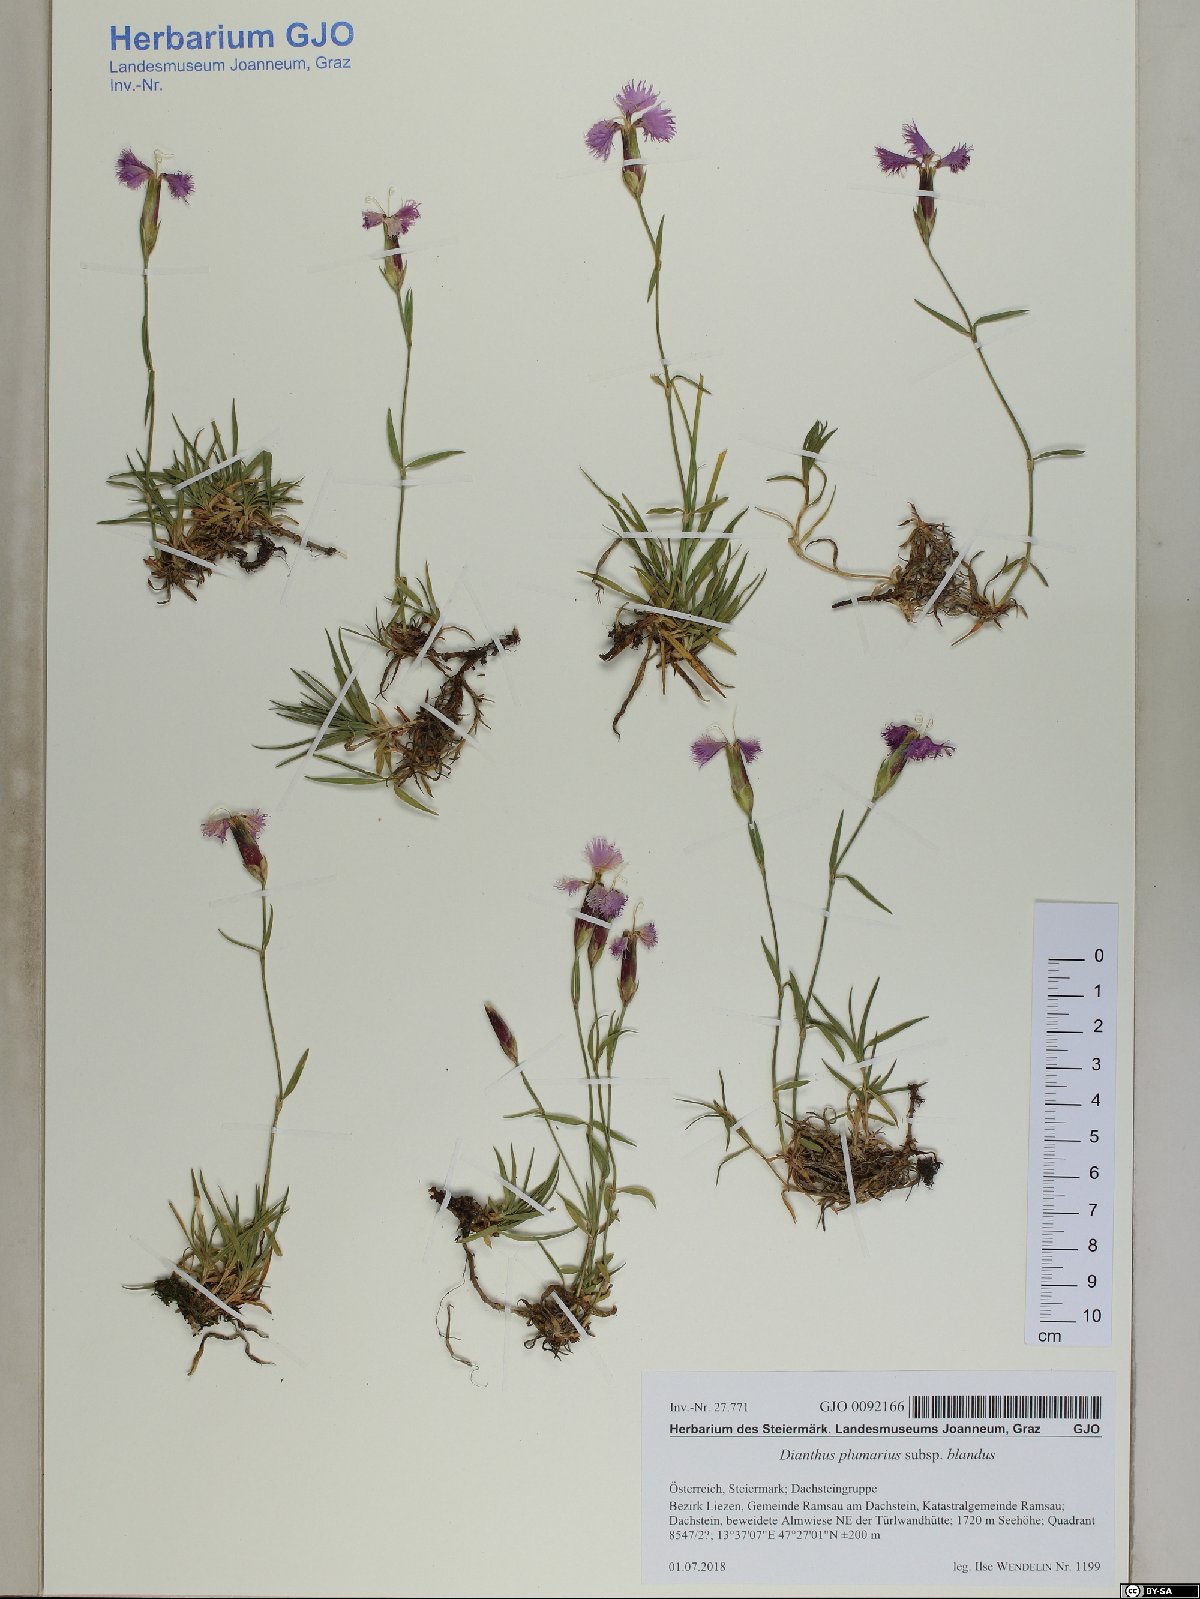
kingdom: Plantae
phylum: Tracheophyta
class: Magnoliopsida
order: Caryophyllales
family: Caryophyllaceae
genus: Dianthus
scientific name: Dianthus plumarius
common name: Pink
